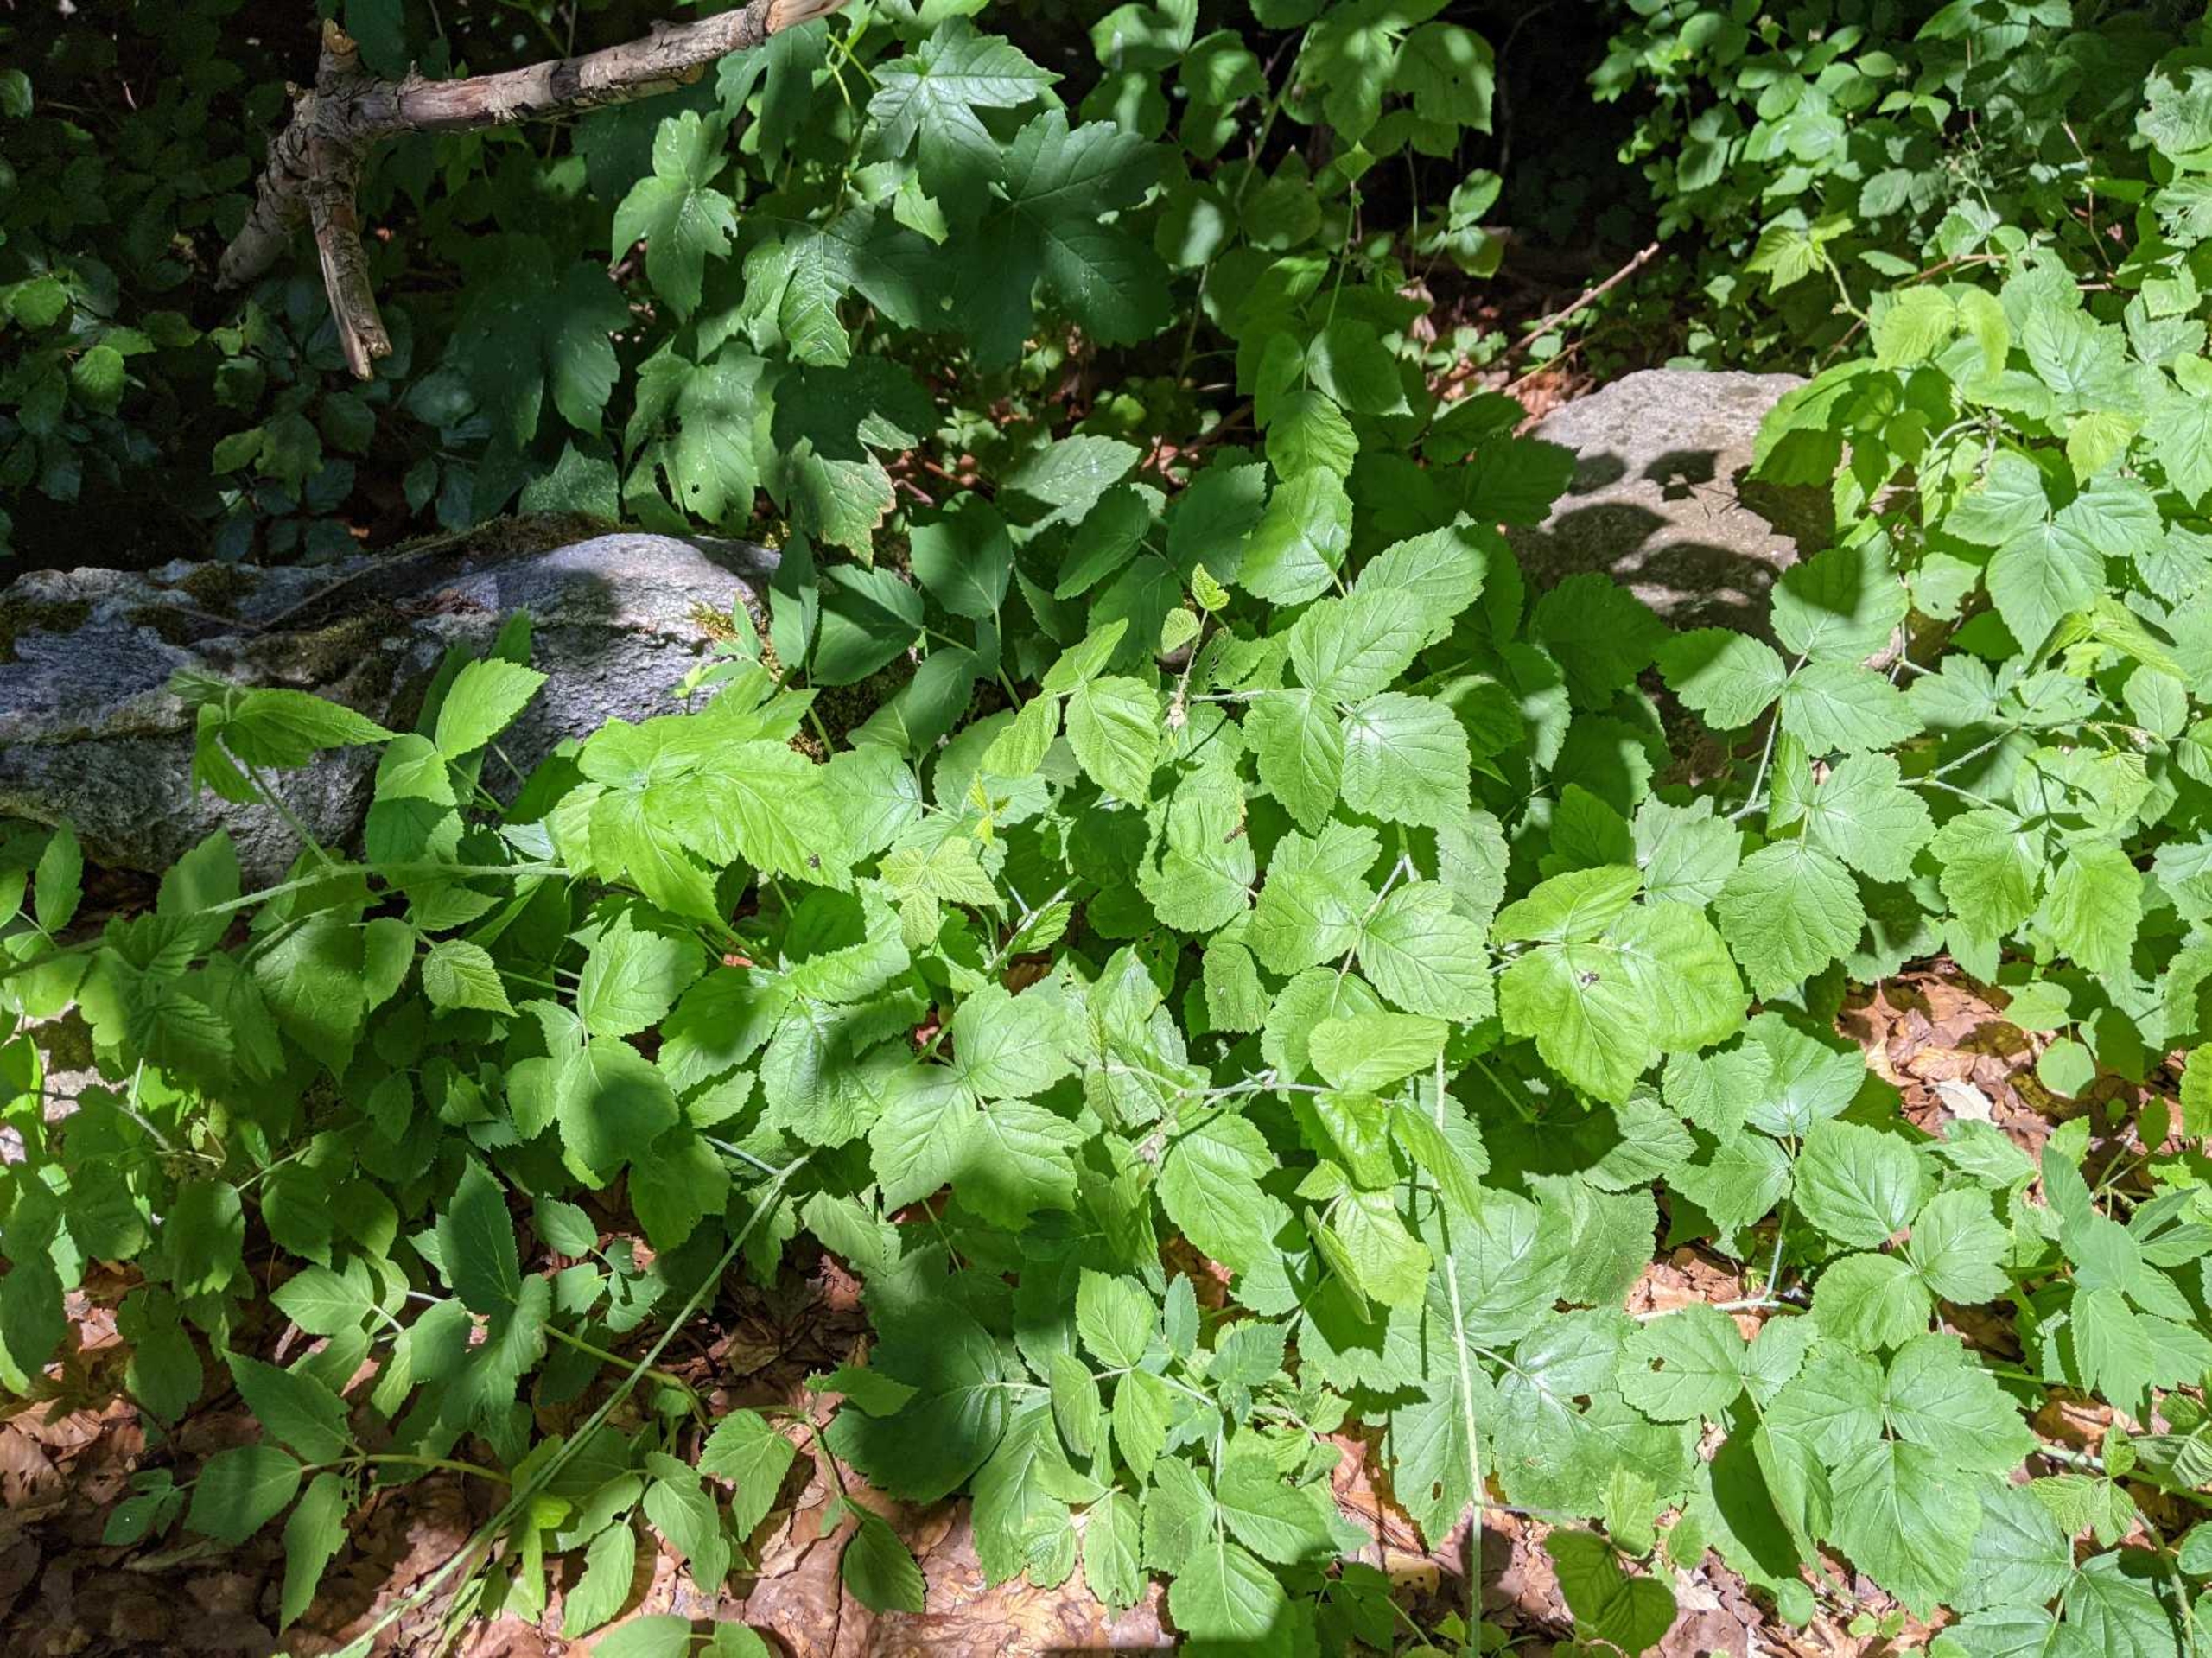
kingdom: Plantae
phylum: Tracheophyta
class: Magnoliopsida
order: Rosales
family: Rosaceae
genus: Rubus
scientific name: Rubus caesius
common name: Korbær
